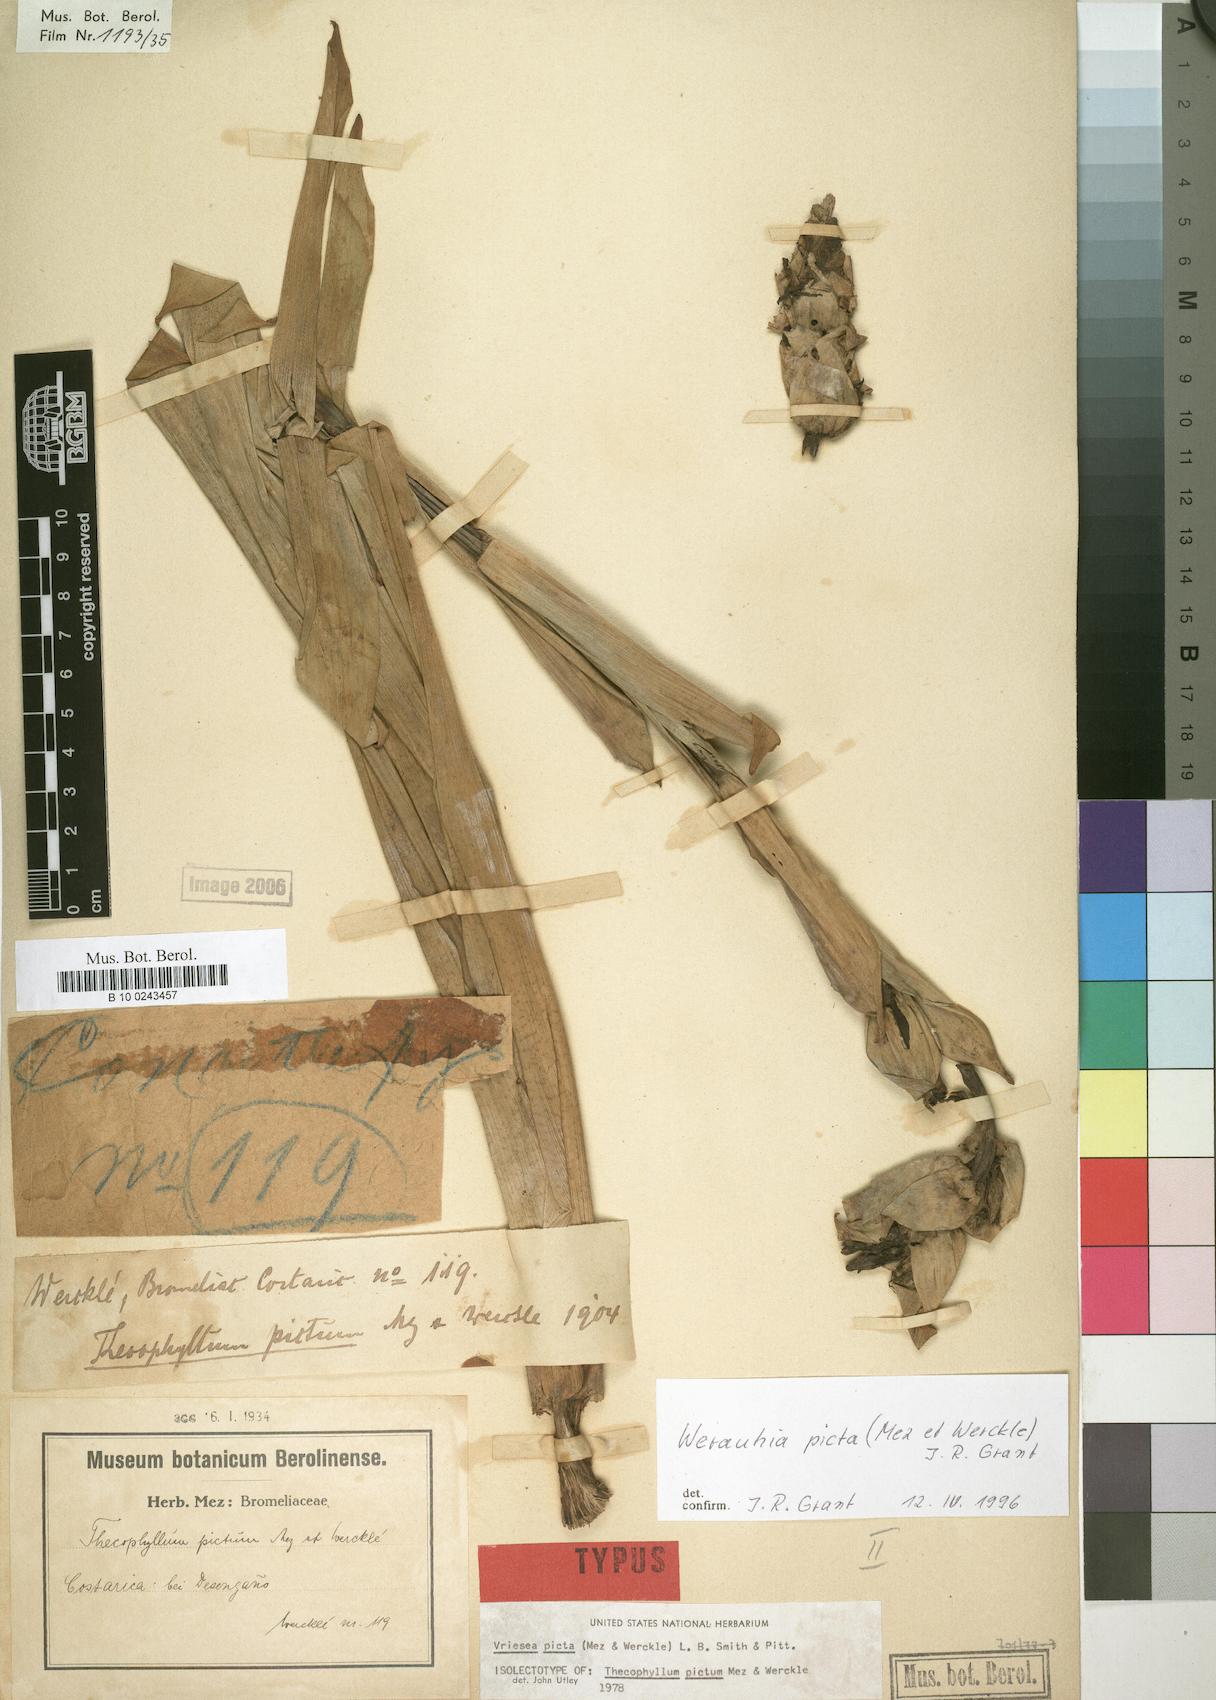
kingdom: Plantae
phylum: Tracheophyta
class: Liliopsida
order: Poales
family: Bromeliaceae
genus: Werauhia
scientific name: Werauhia picta
